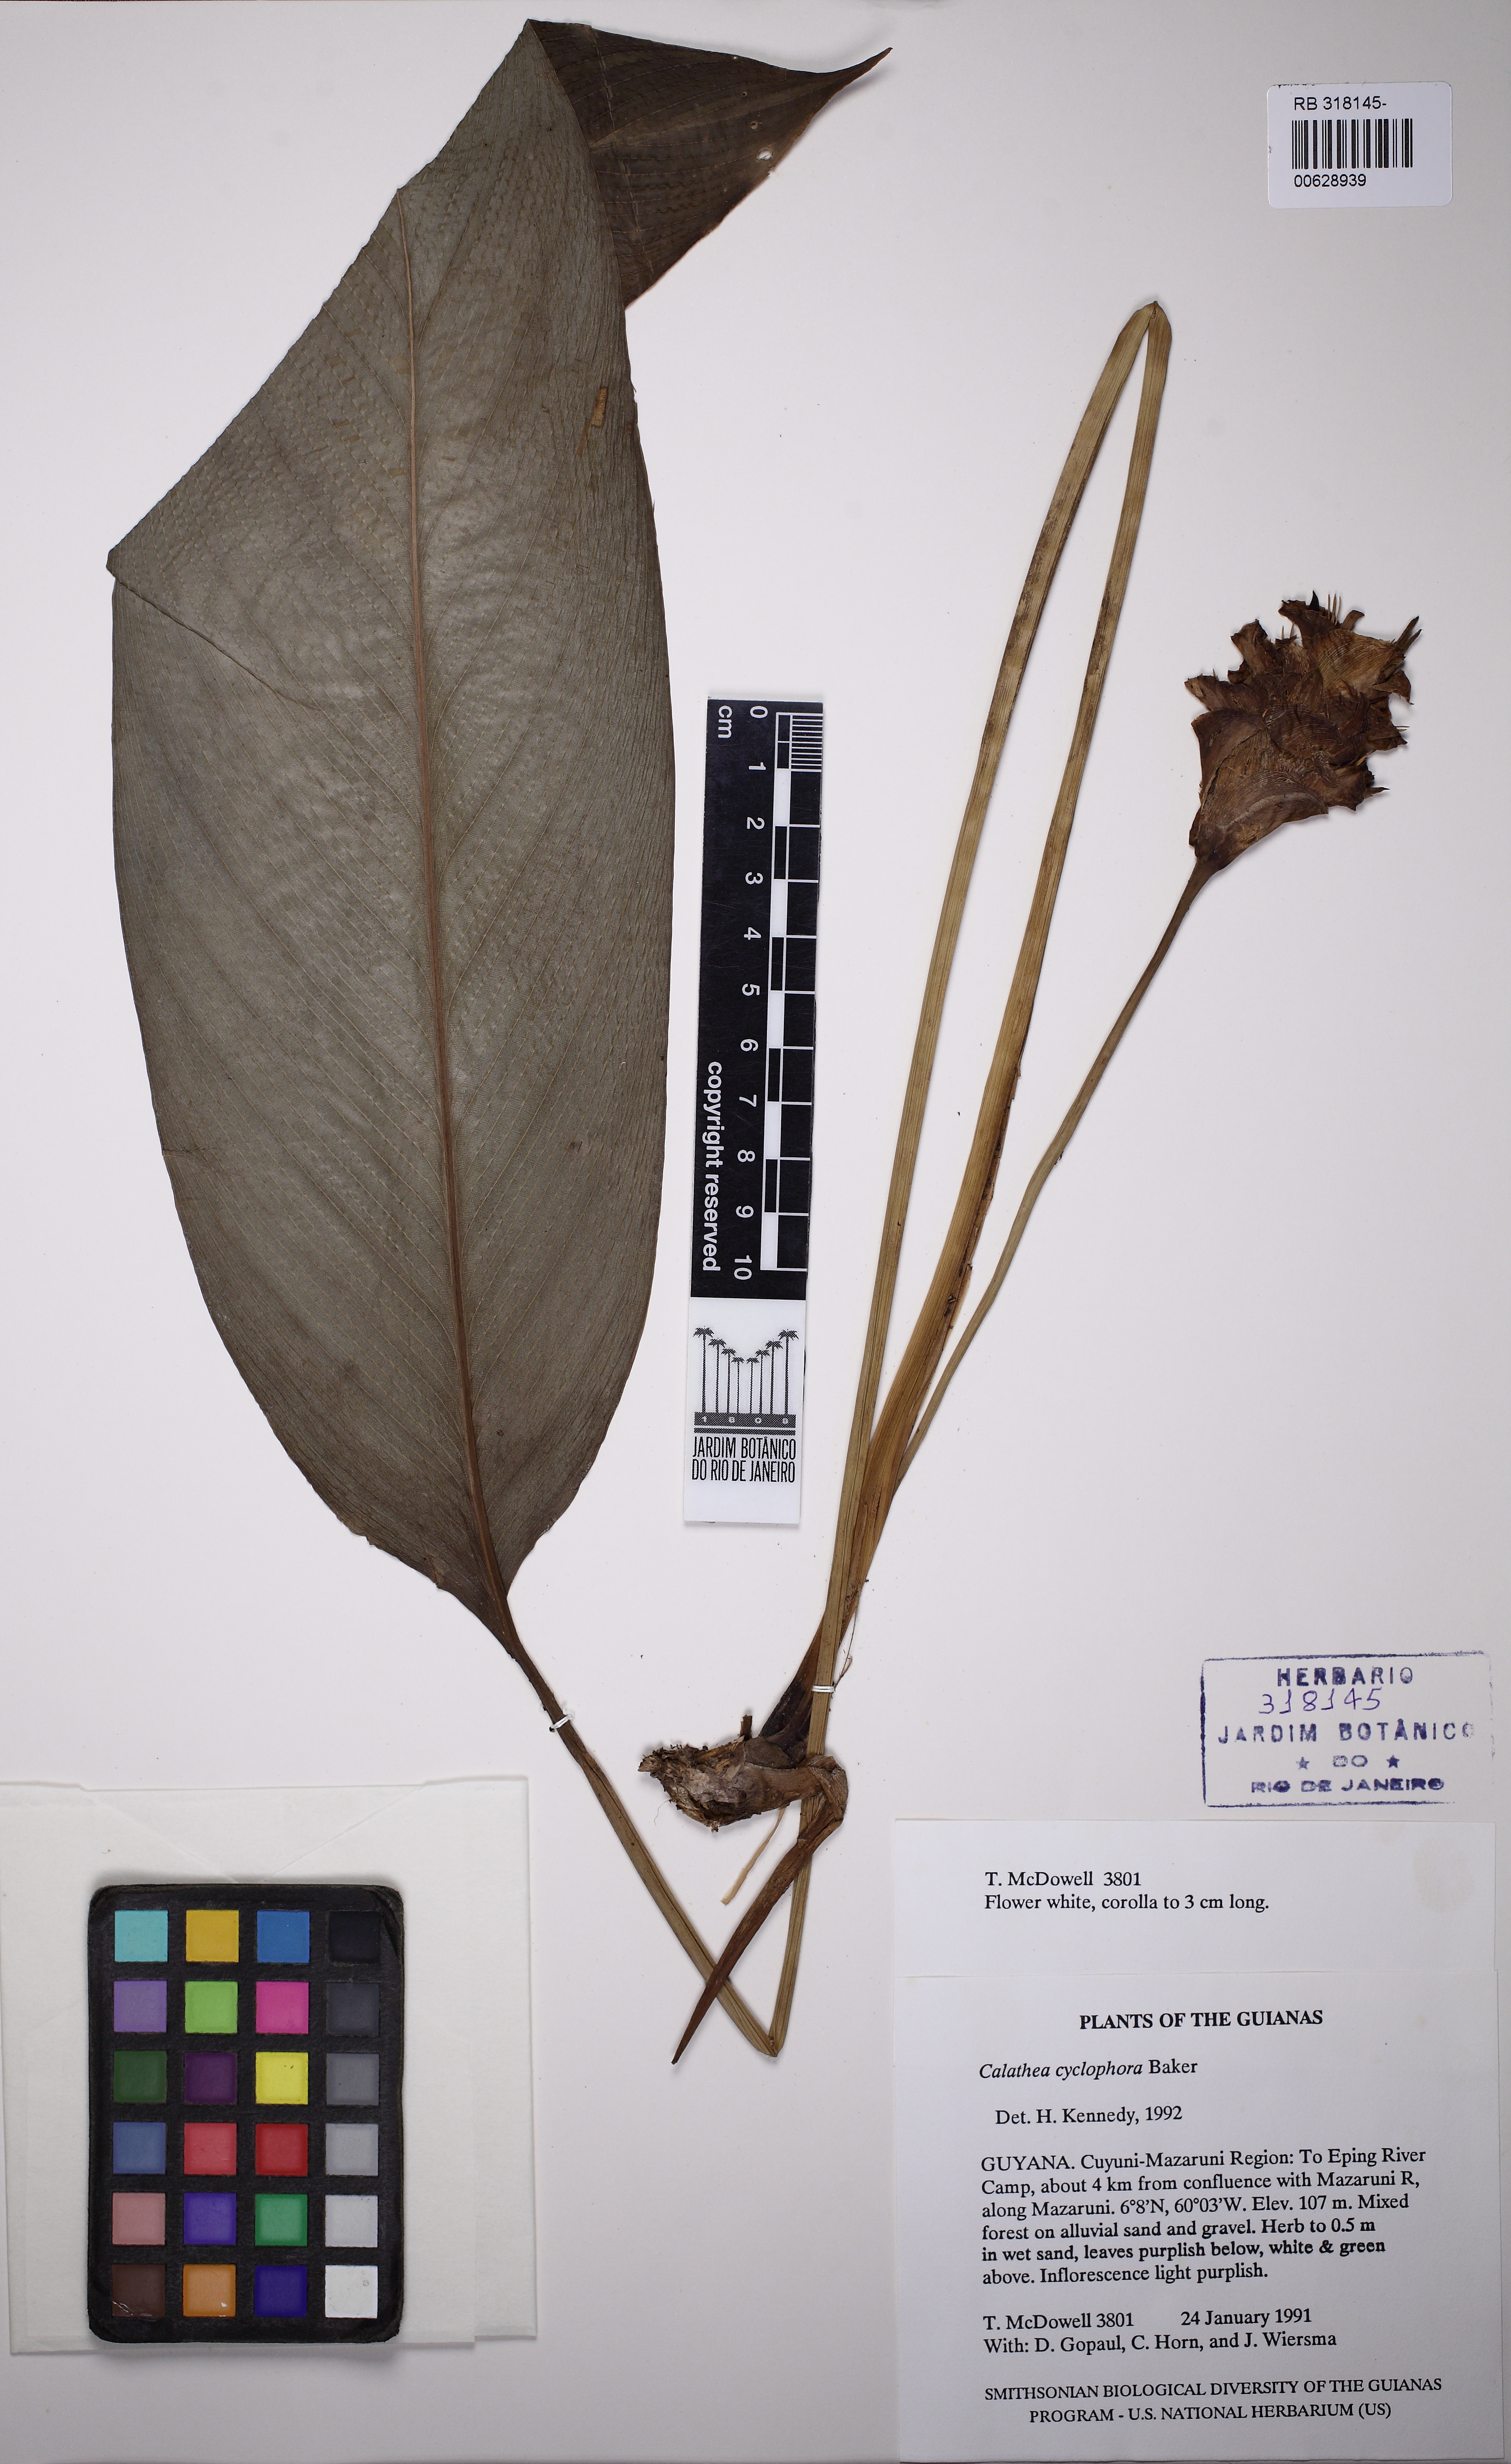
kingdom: Plantae
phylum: Tracheophyta
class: Liliopsida
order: Zingiberales
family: Marantaceae
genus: Goeppertia
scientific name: Goeppertia cylindrica
